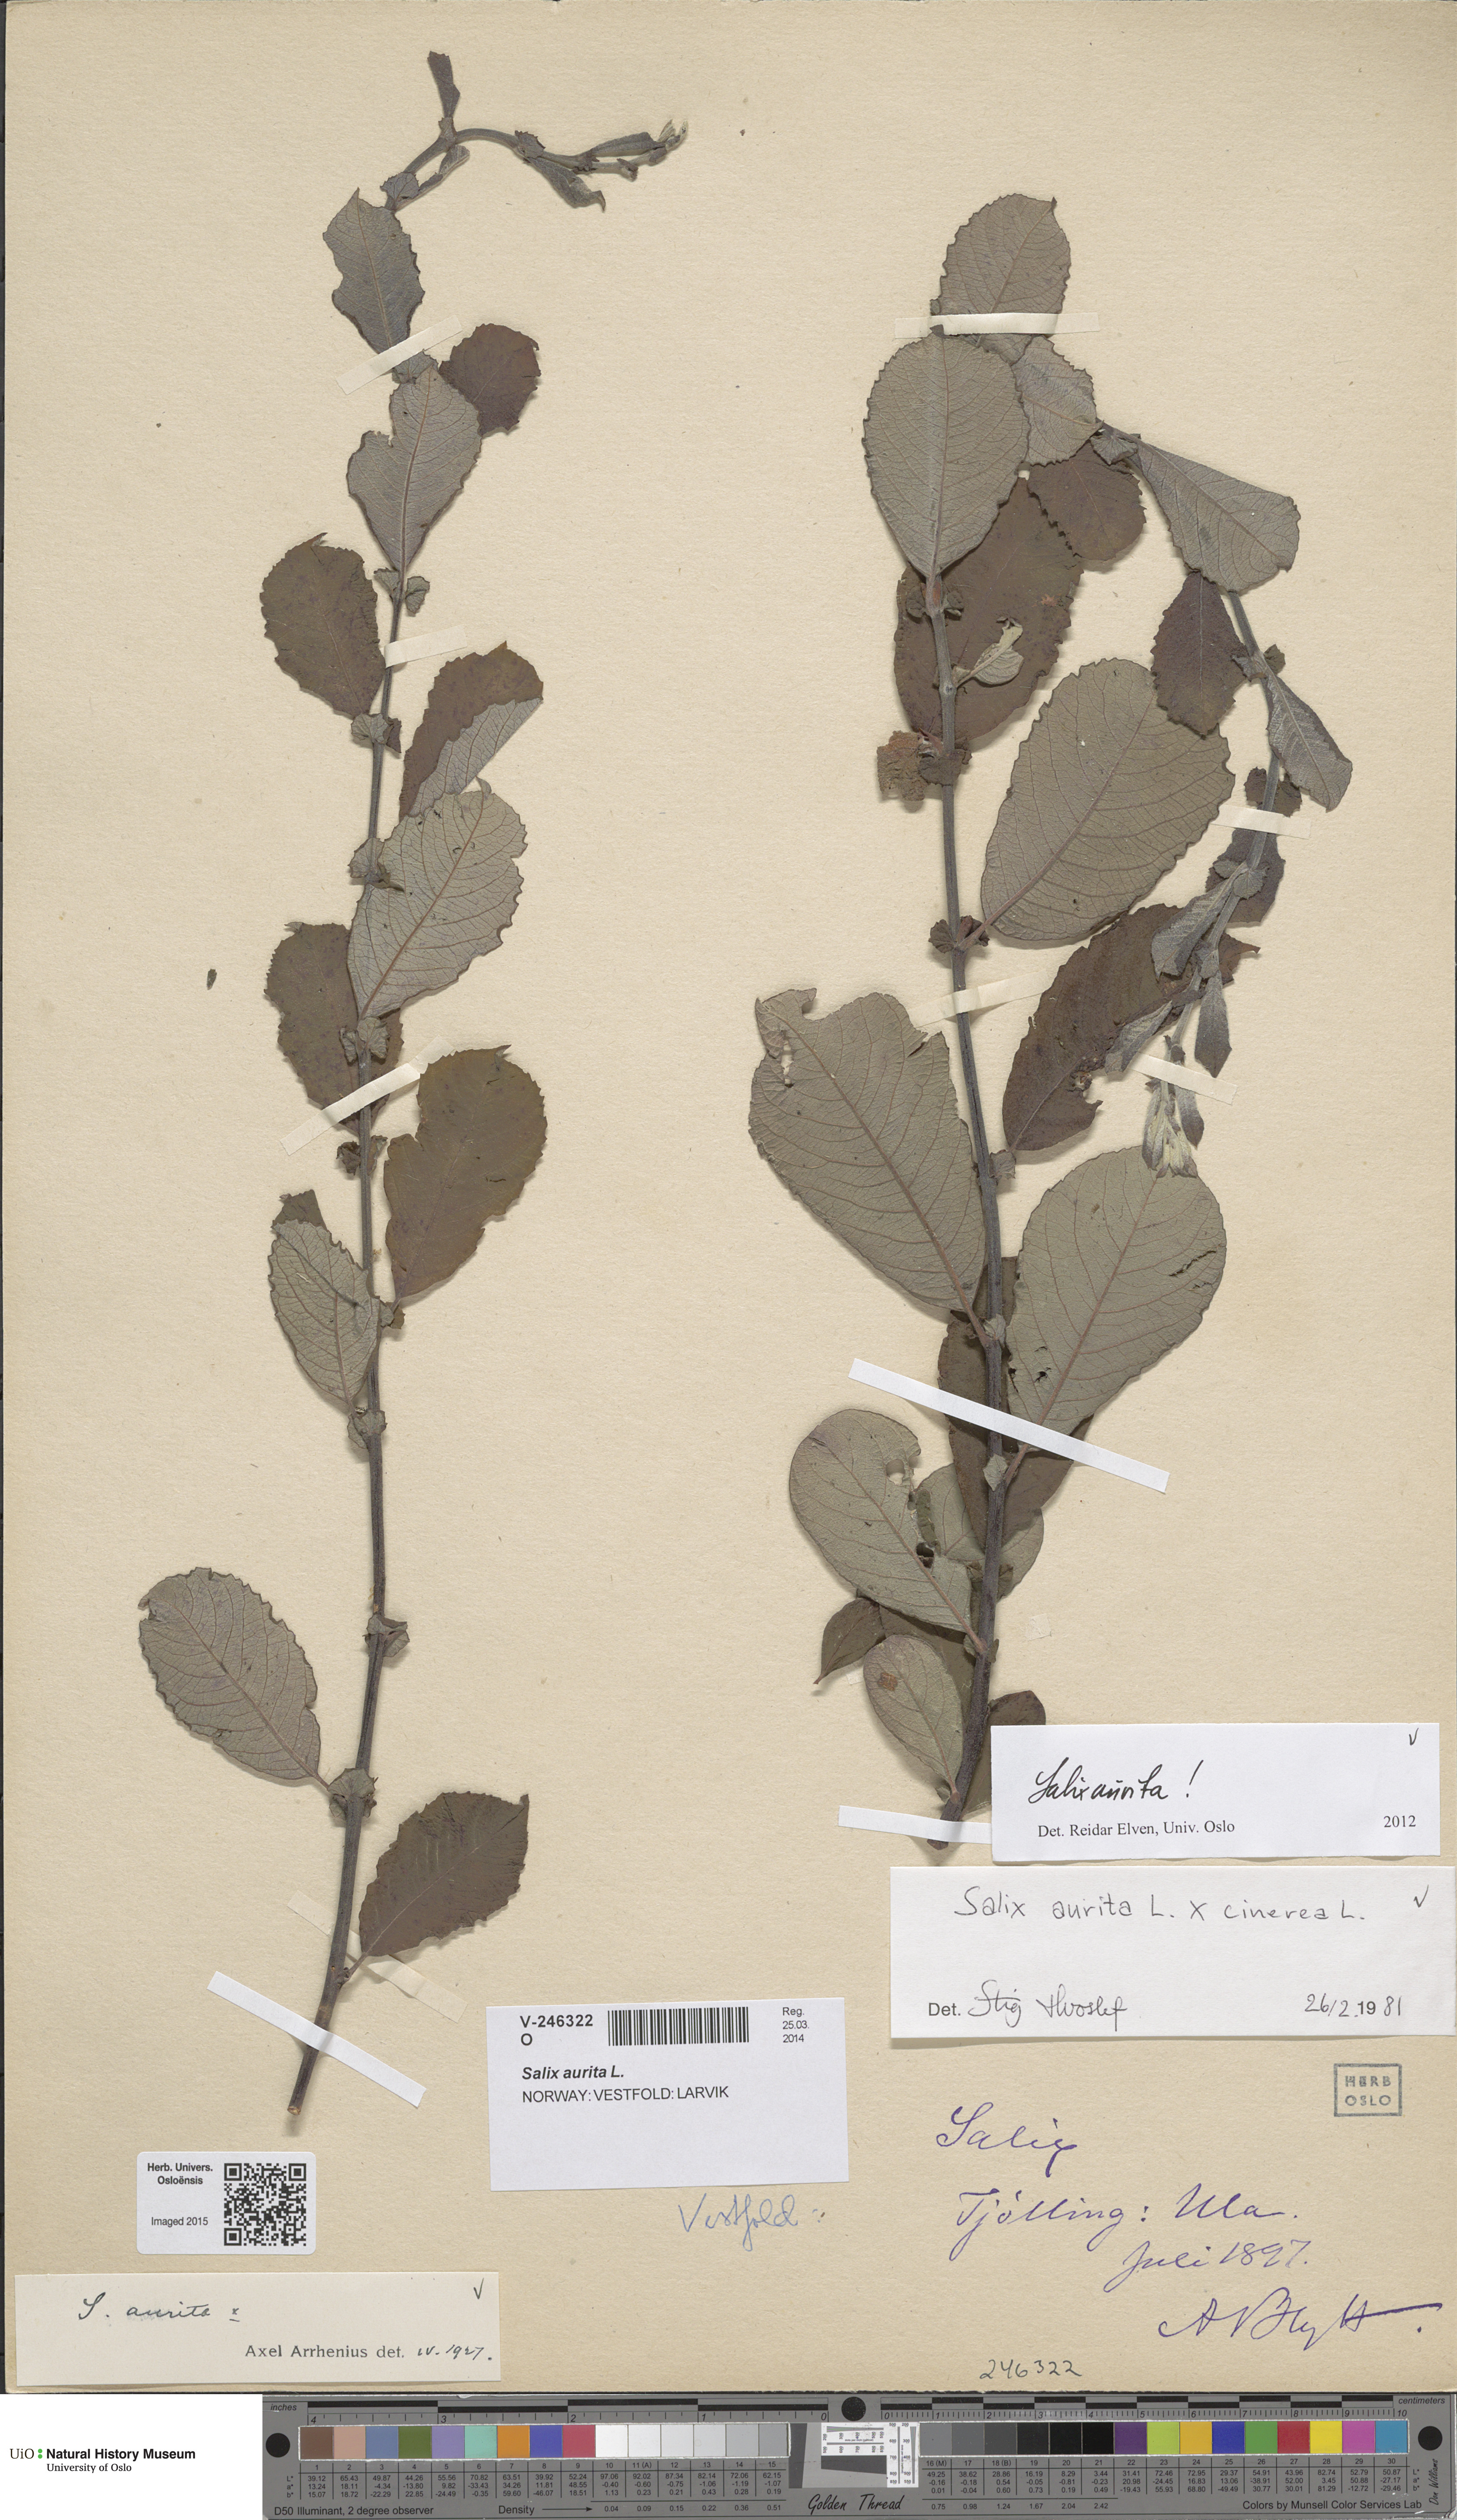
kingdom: Plantae
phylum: Tracheophyta
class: Magnoliopsida
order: Malpighiales
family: Salicaceae
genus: Salix
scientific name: Salix aurita
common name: Eared willow
